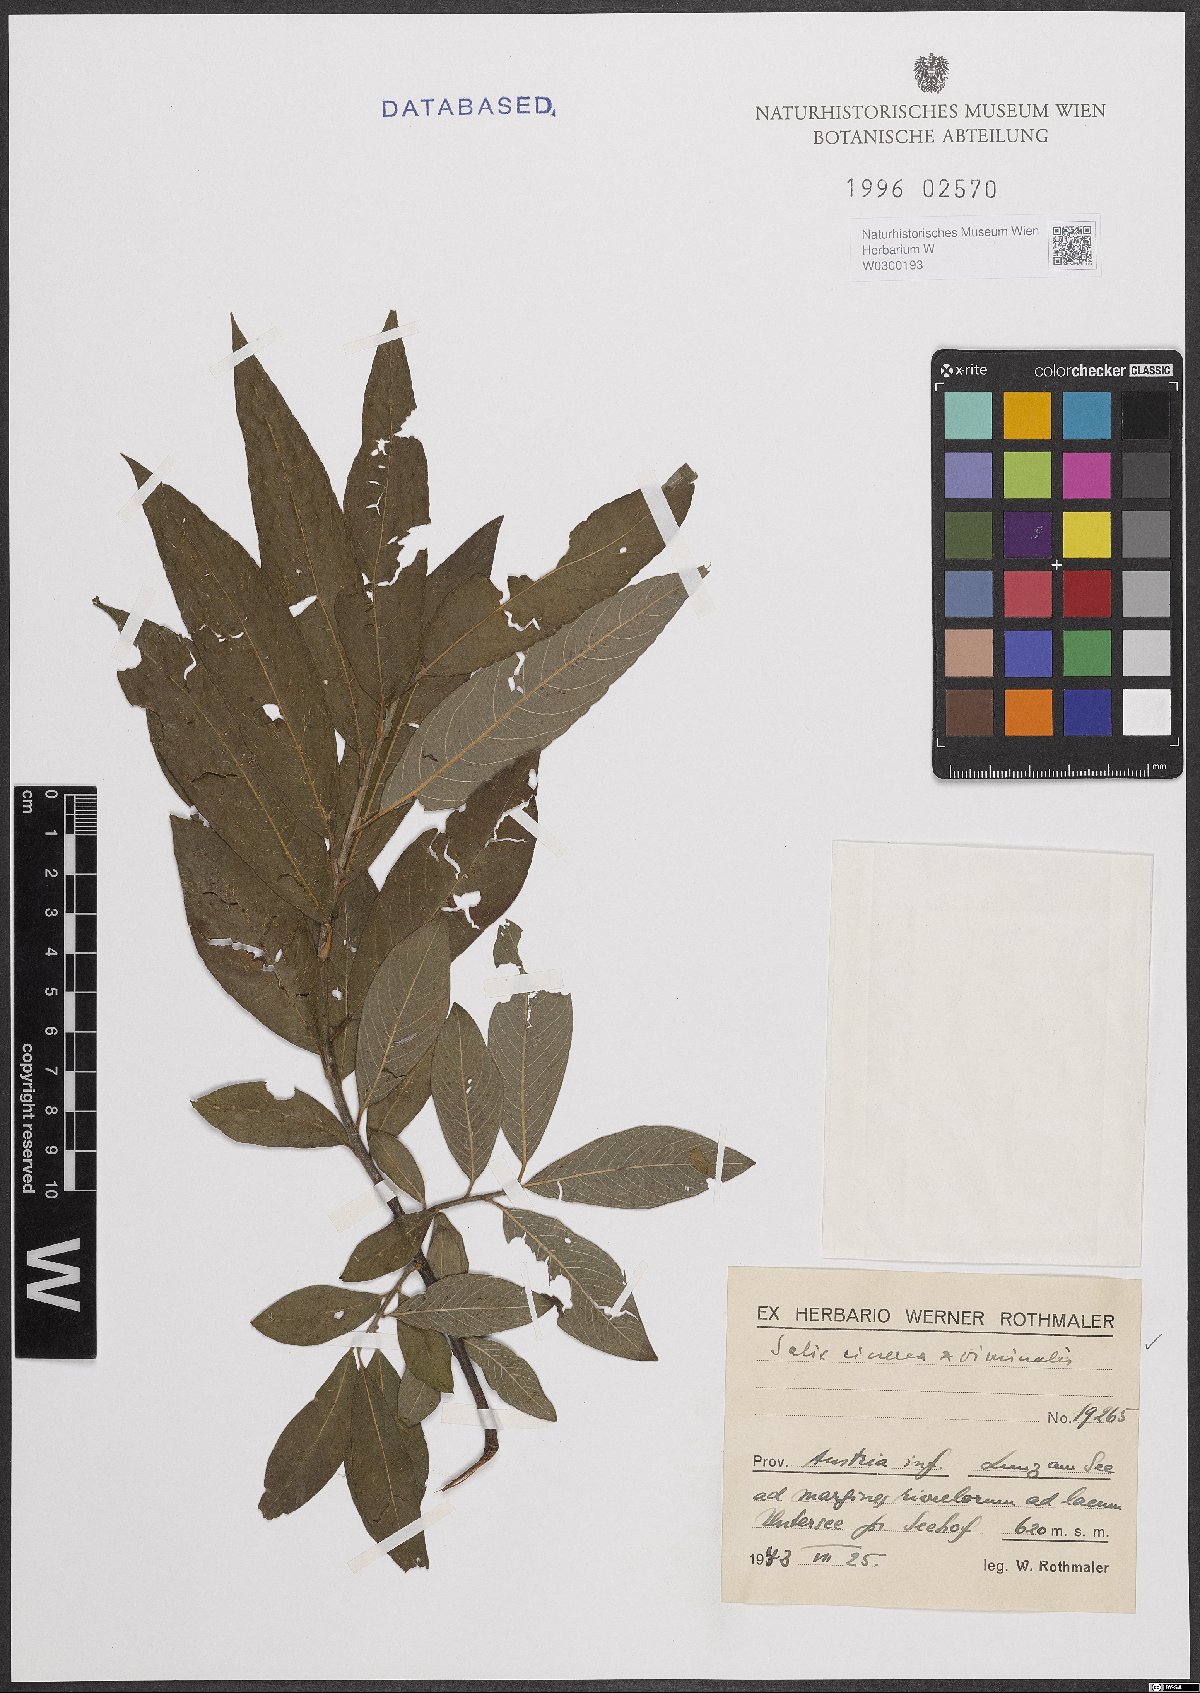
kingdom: Plantae
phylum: Tracheophyta
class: Magnoliopsida
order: Malpighiales
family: Salicaceae
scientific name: Salicaceae
